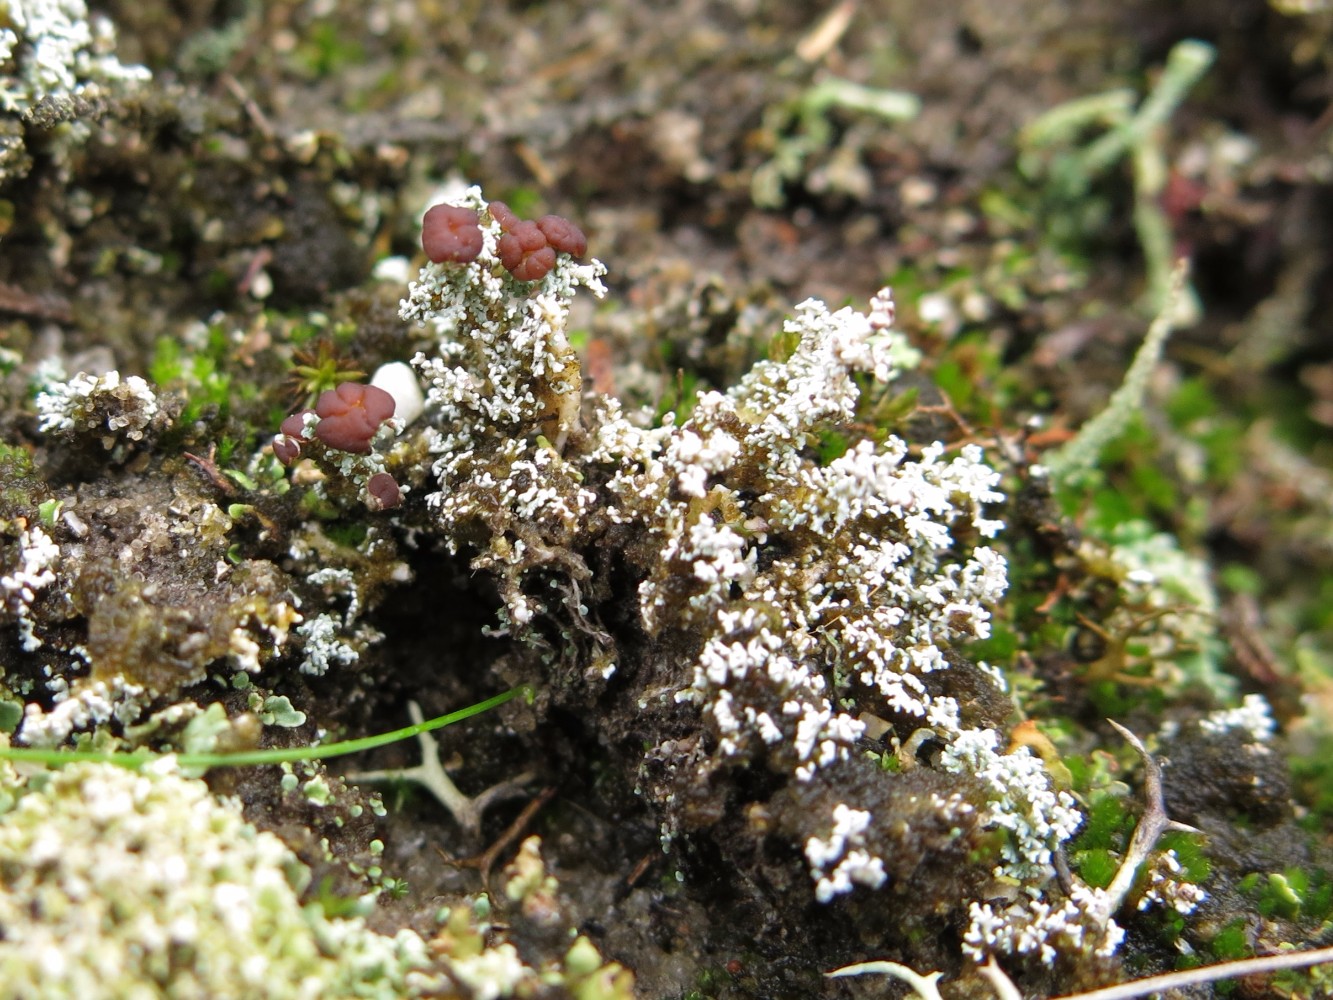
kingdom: Fungi
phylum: Ascomycota
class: Lecanoromycetes
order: Lecanorales
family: Stereocaulaceae
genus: Stereocaulon
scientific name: Stereocaulon saxatile
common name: klit-korallav
